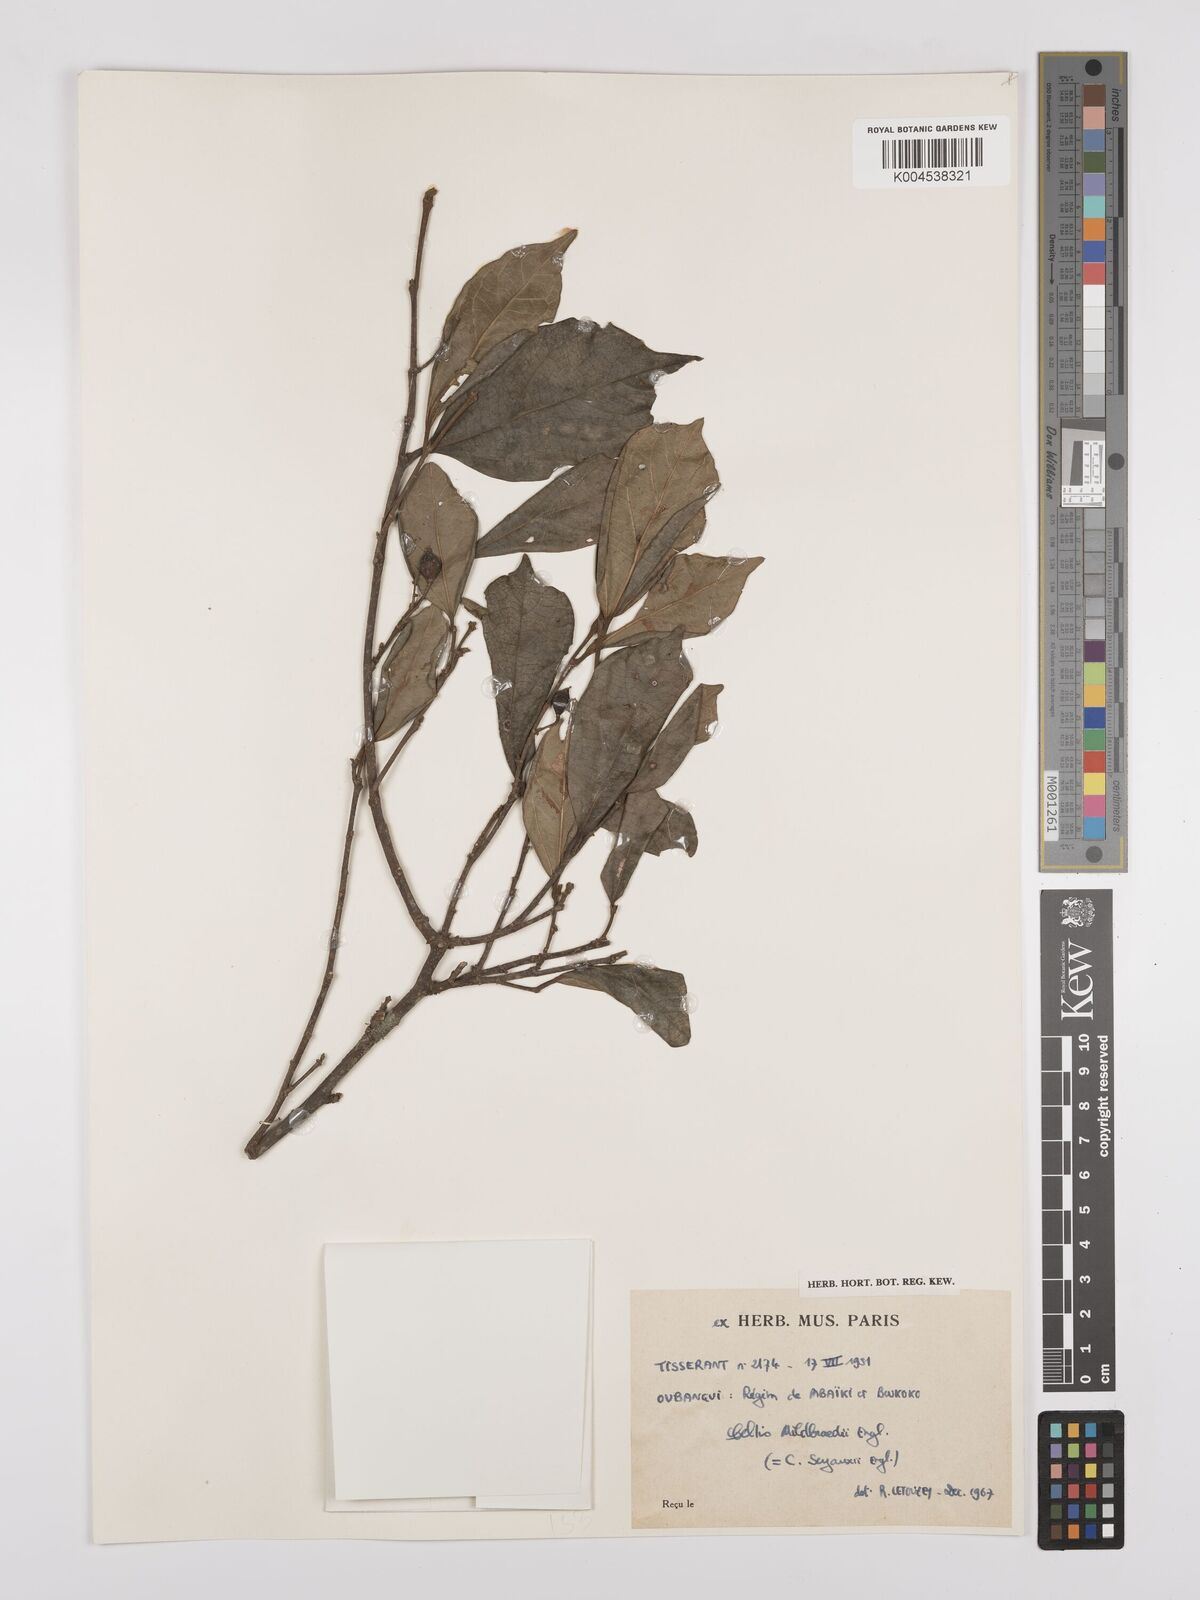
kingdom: Plantae
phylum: Tracheophyta
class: Magnoliopsida
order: Rosales
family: Cannabaceae
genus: Celtis
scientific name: Celtis mildbraedii
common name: Red-fruited stinkwood
